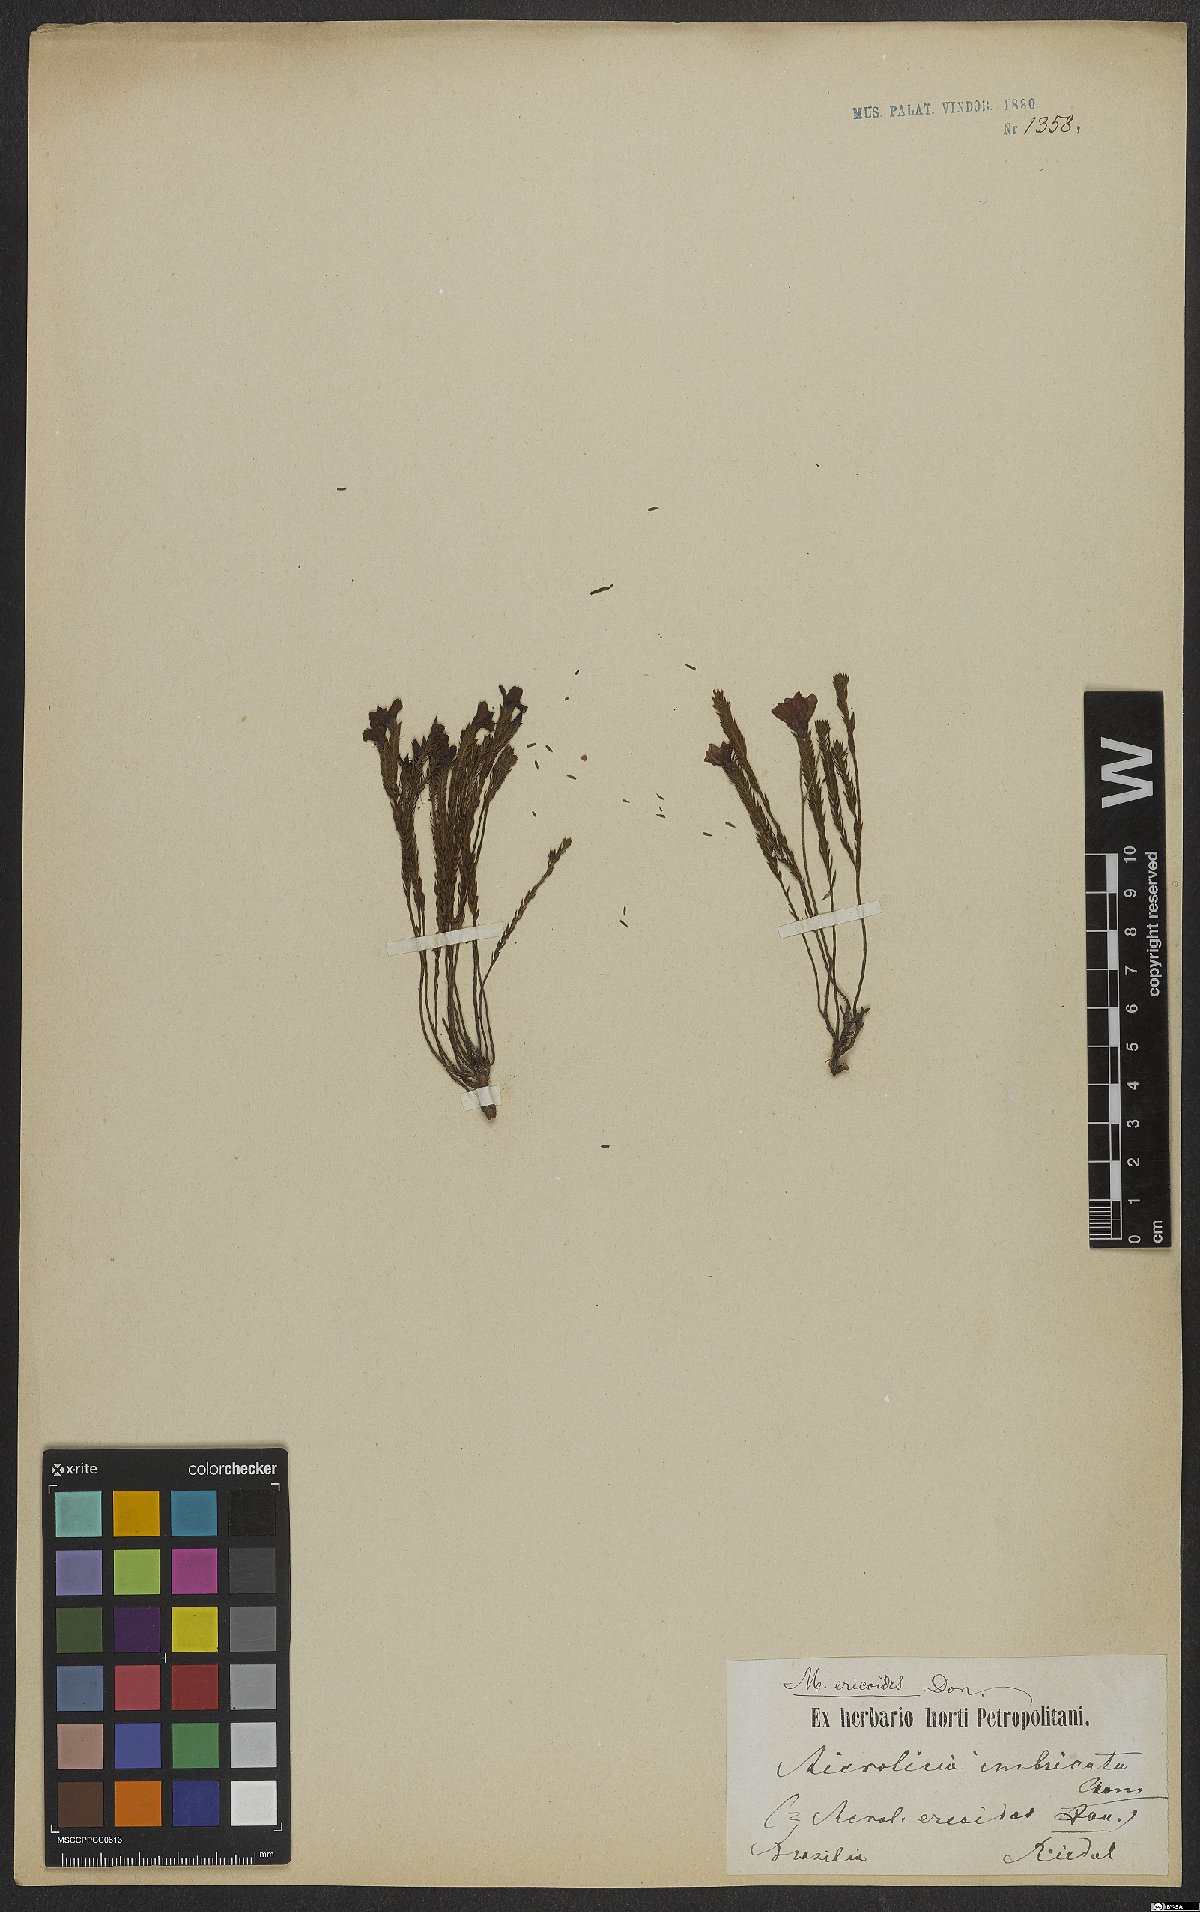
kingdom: Plantae
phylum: Tracheophyta
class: Magnoliopsida
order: Myrtales
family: Melastomataceae
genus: Microlicia
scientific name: Microlicia ericoides
